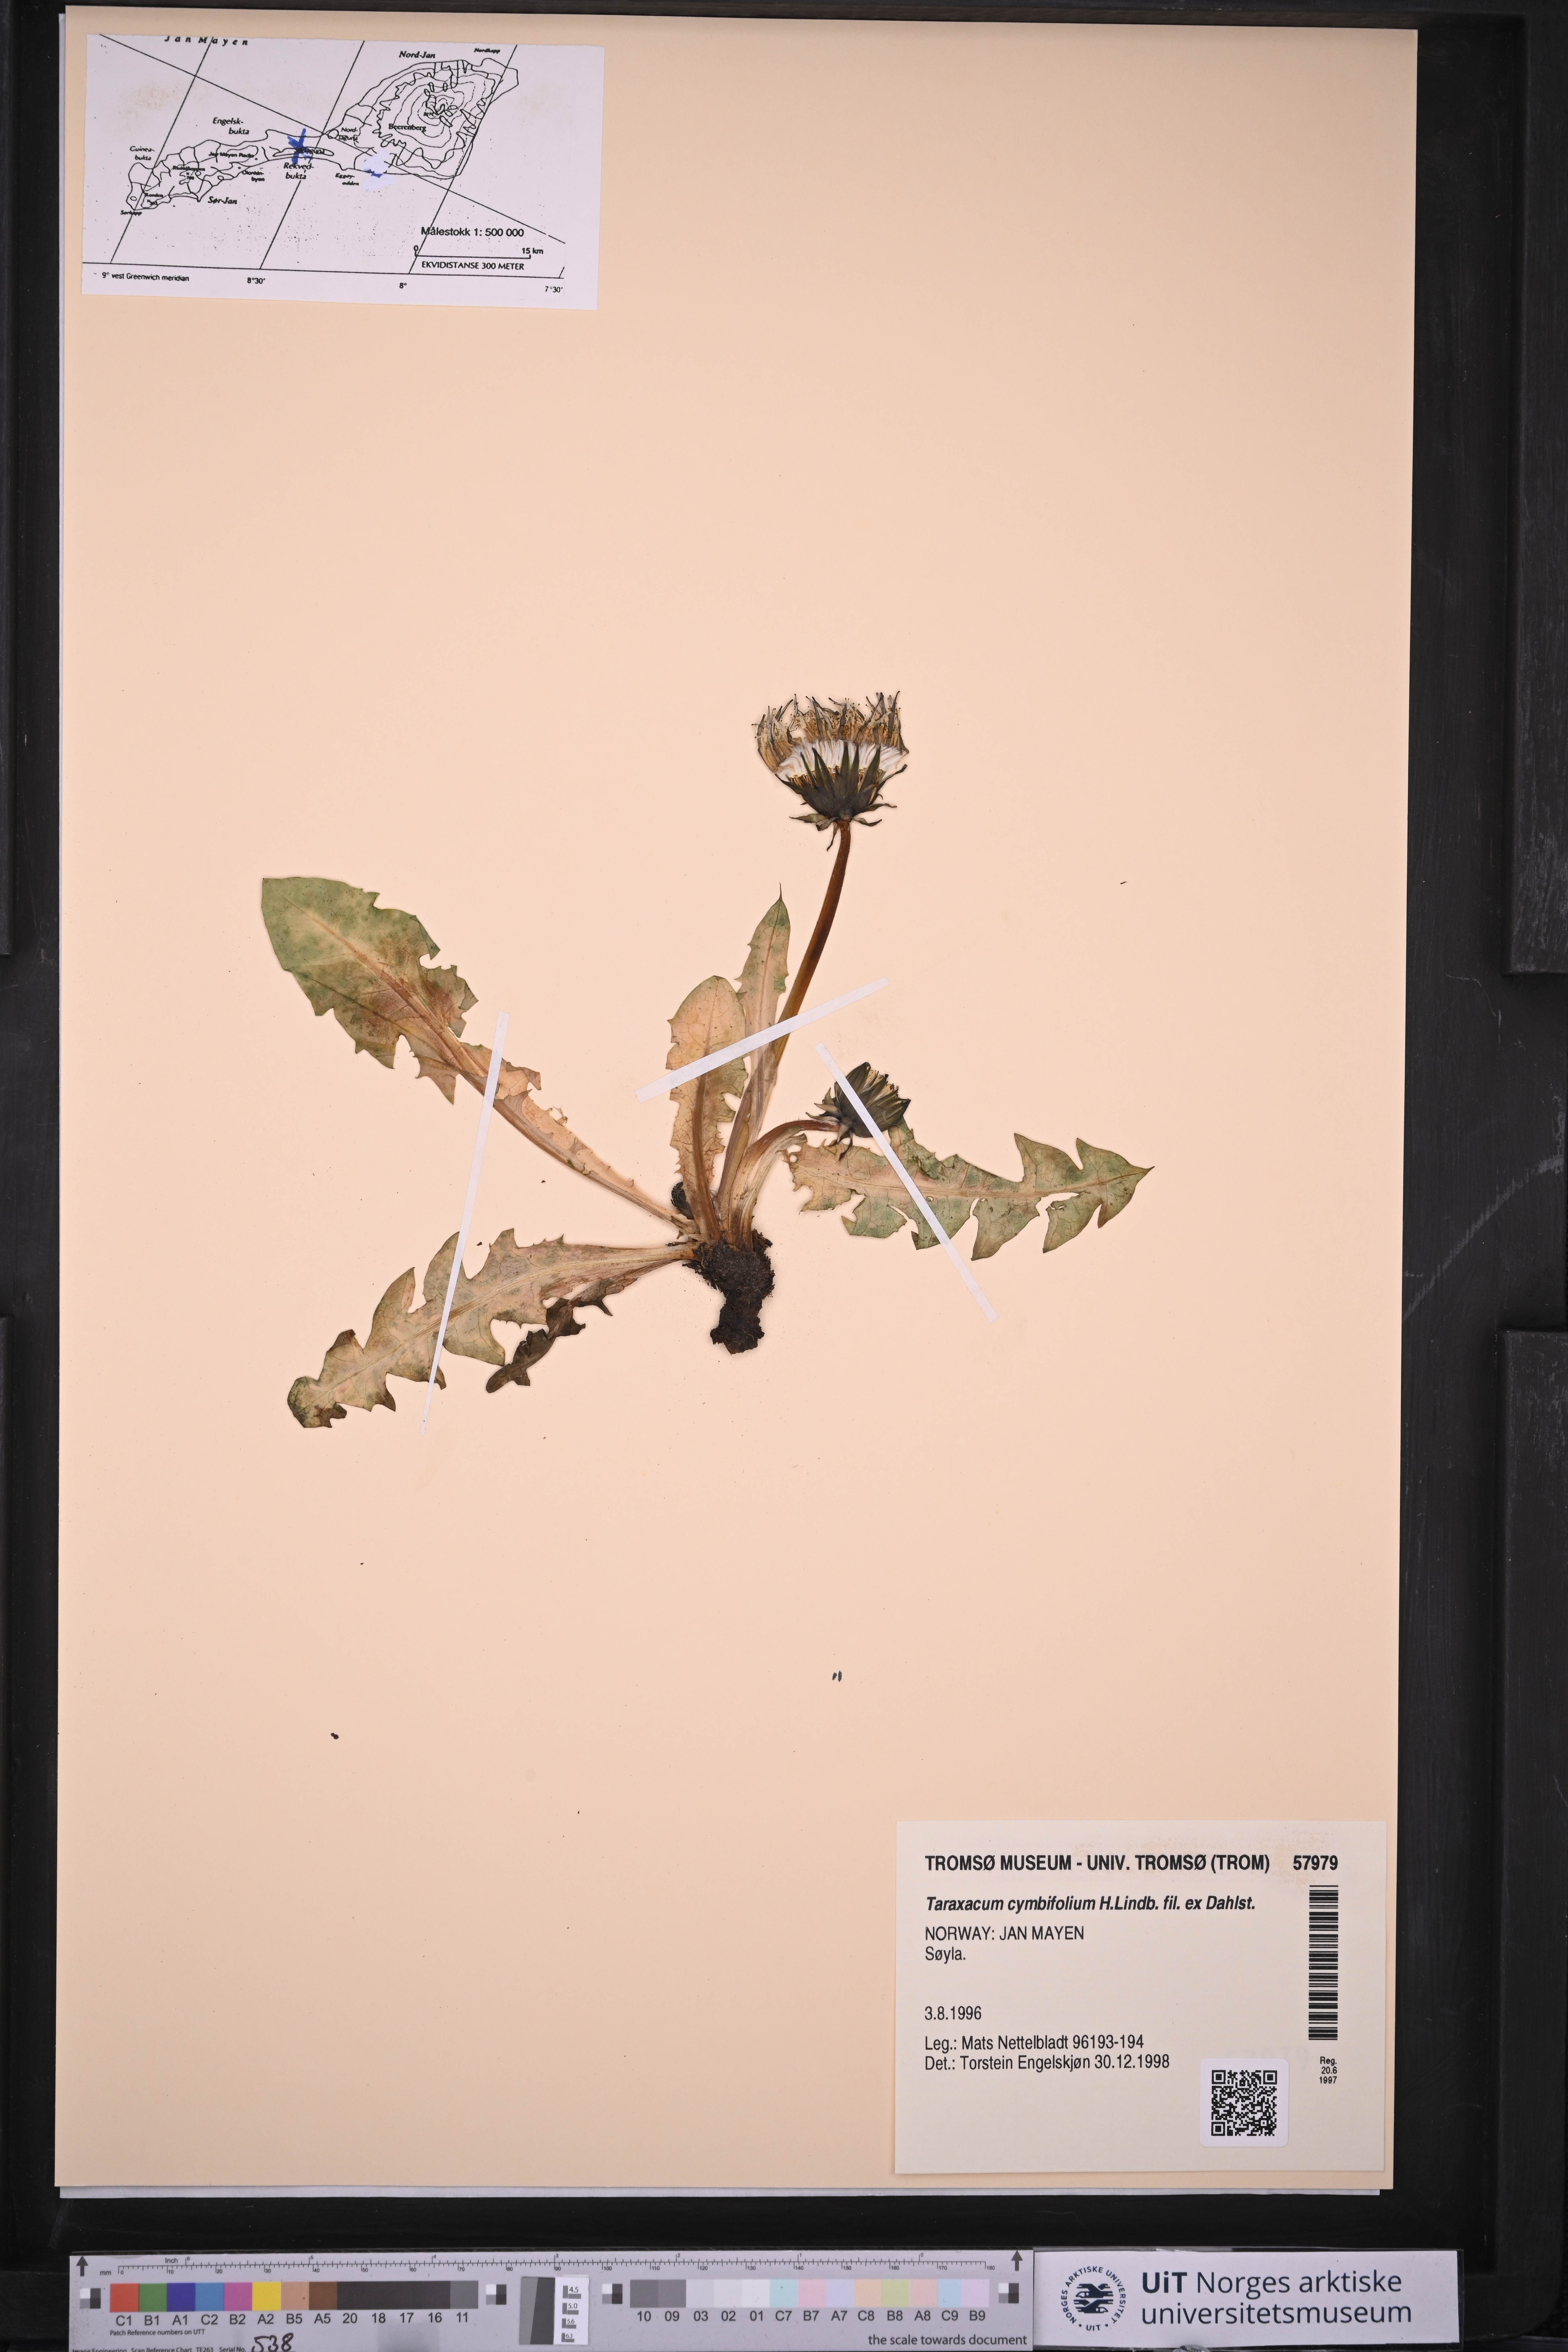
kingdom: Plantae
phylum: Tracheophyta
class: Magnoliopsida
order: Asterales
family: Asteraceae
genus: Taraxacum
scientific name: Taraxacum cymbifolium
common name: Ben lawes dandelion
